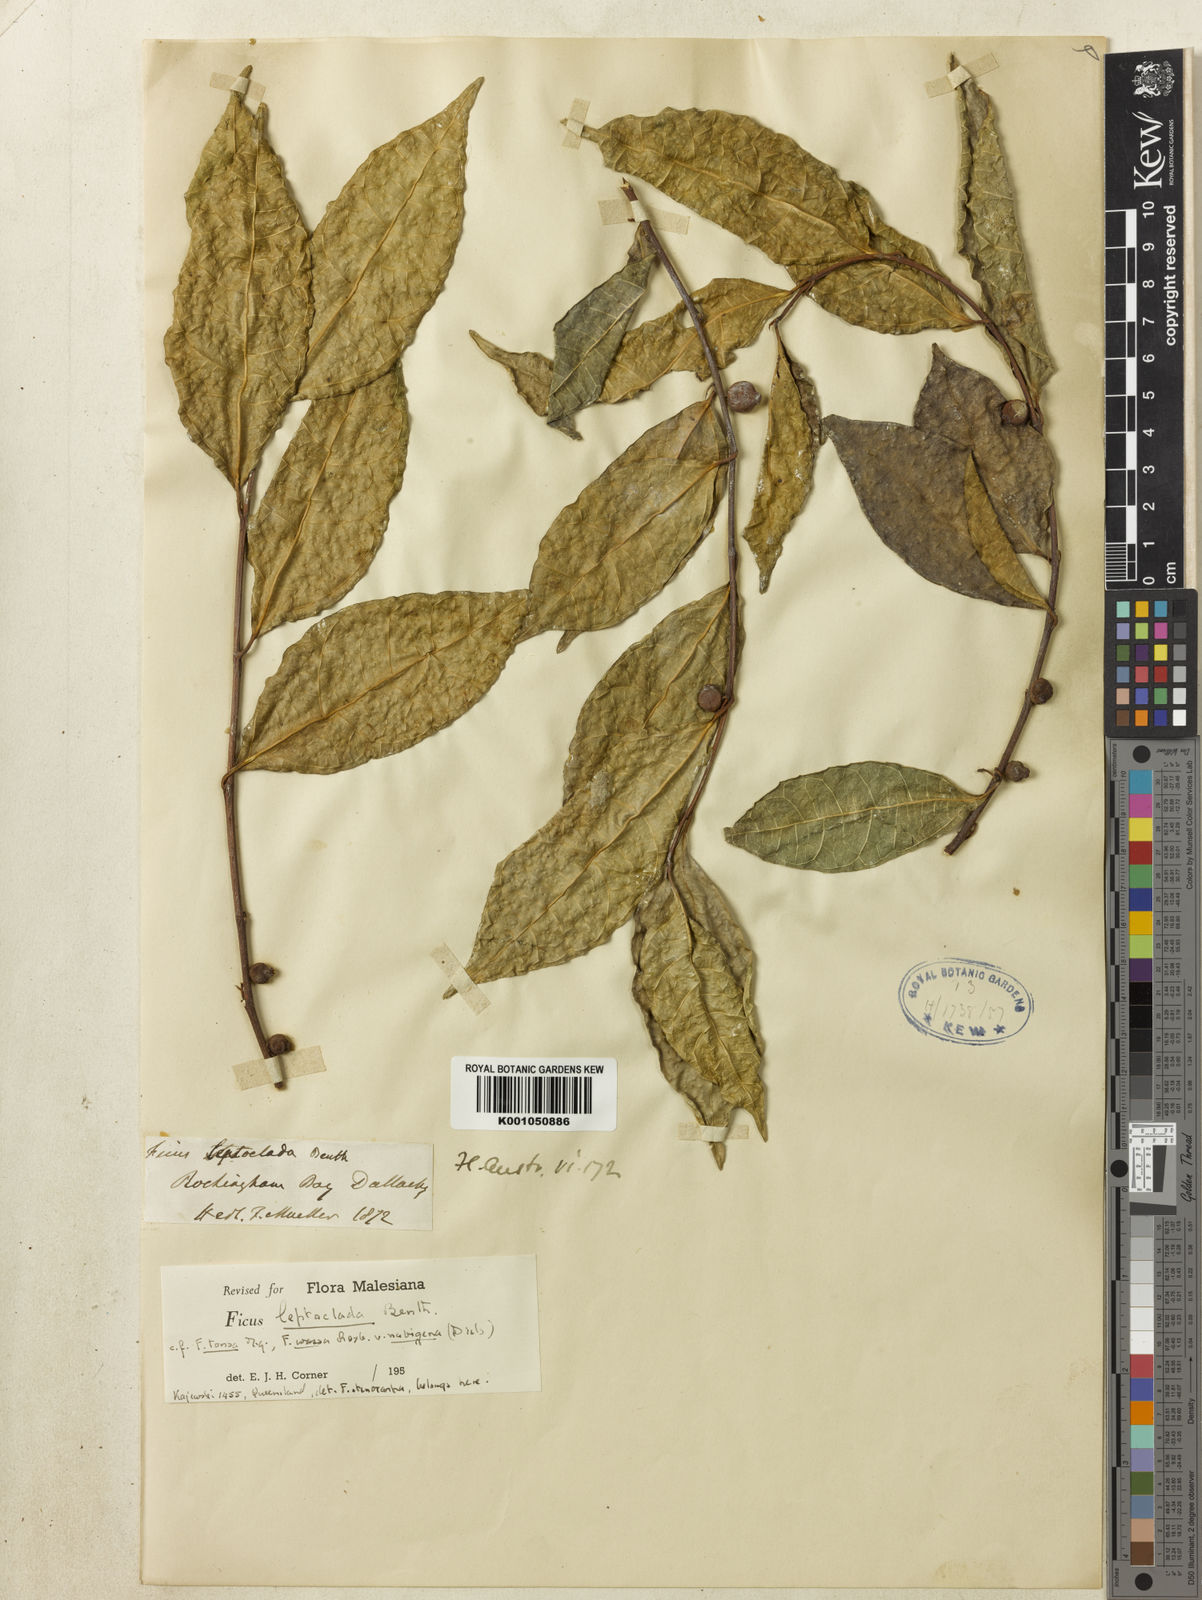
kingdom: Plantae
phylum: Tracheophyta
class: Magnoliopsida
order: Rosales
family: Moraceae
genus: Ficus
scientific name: Ficus leptoclada
